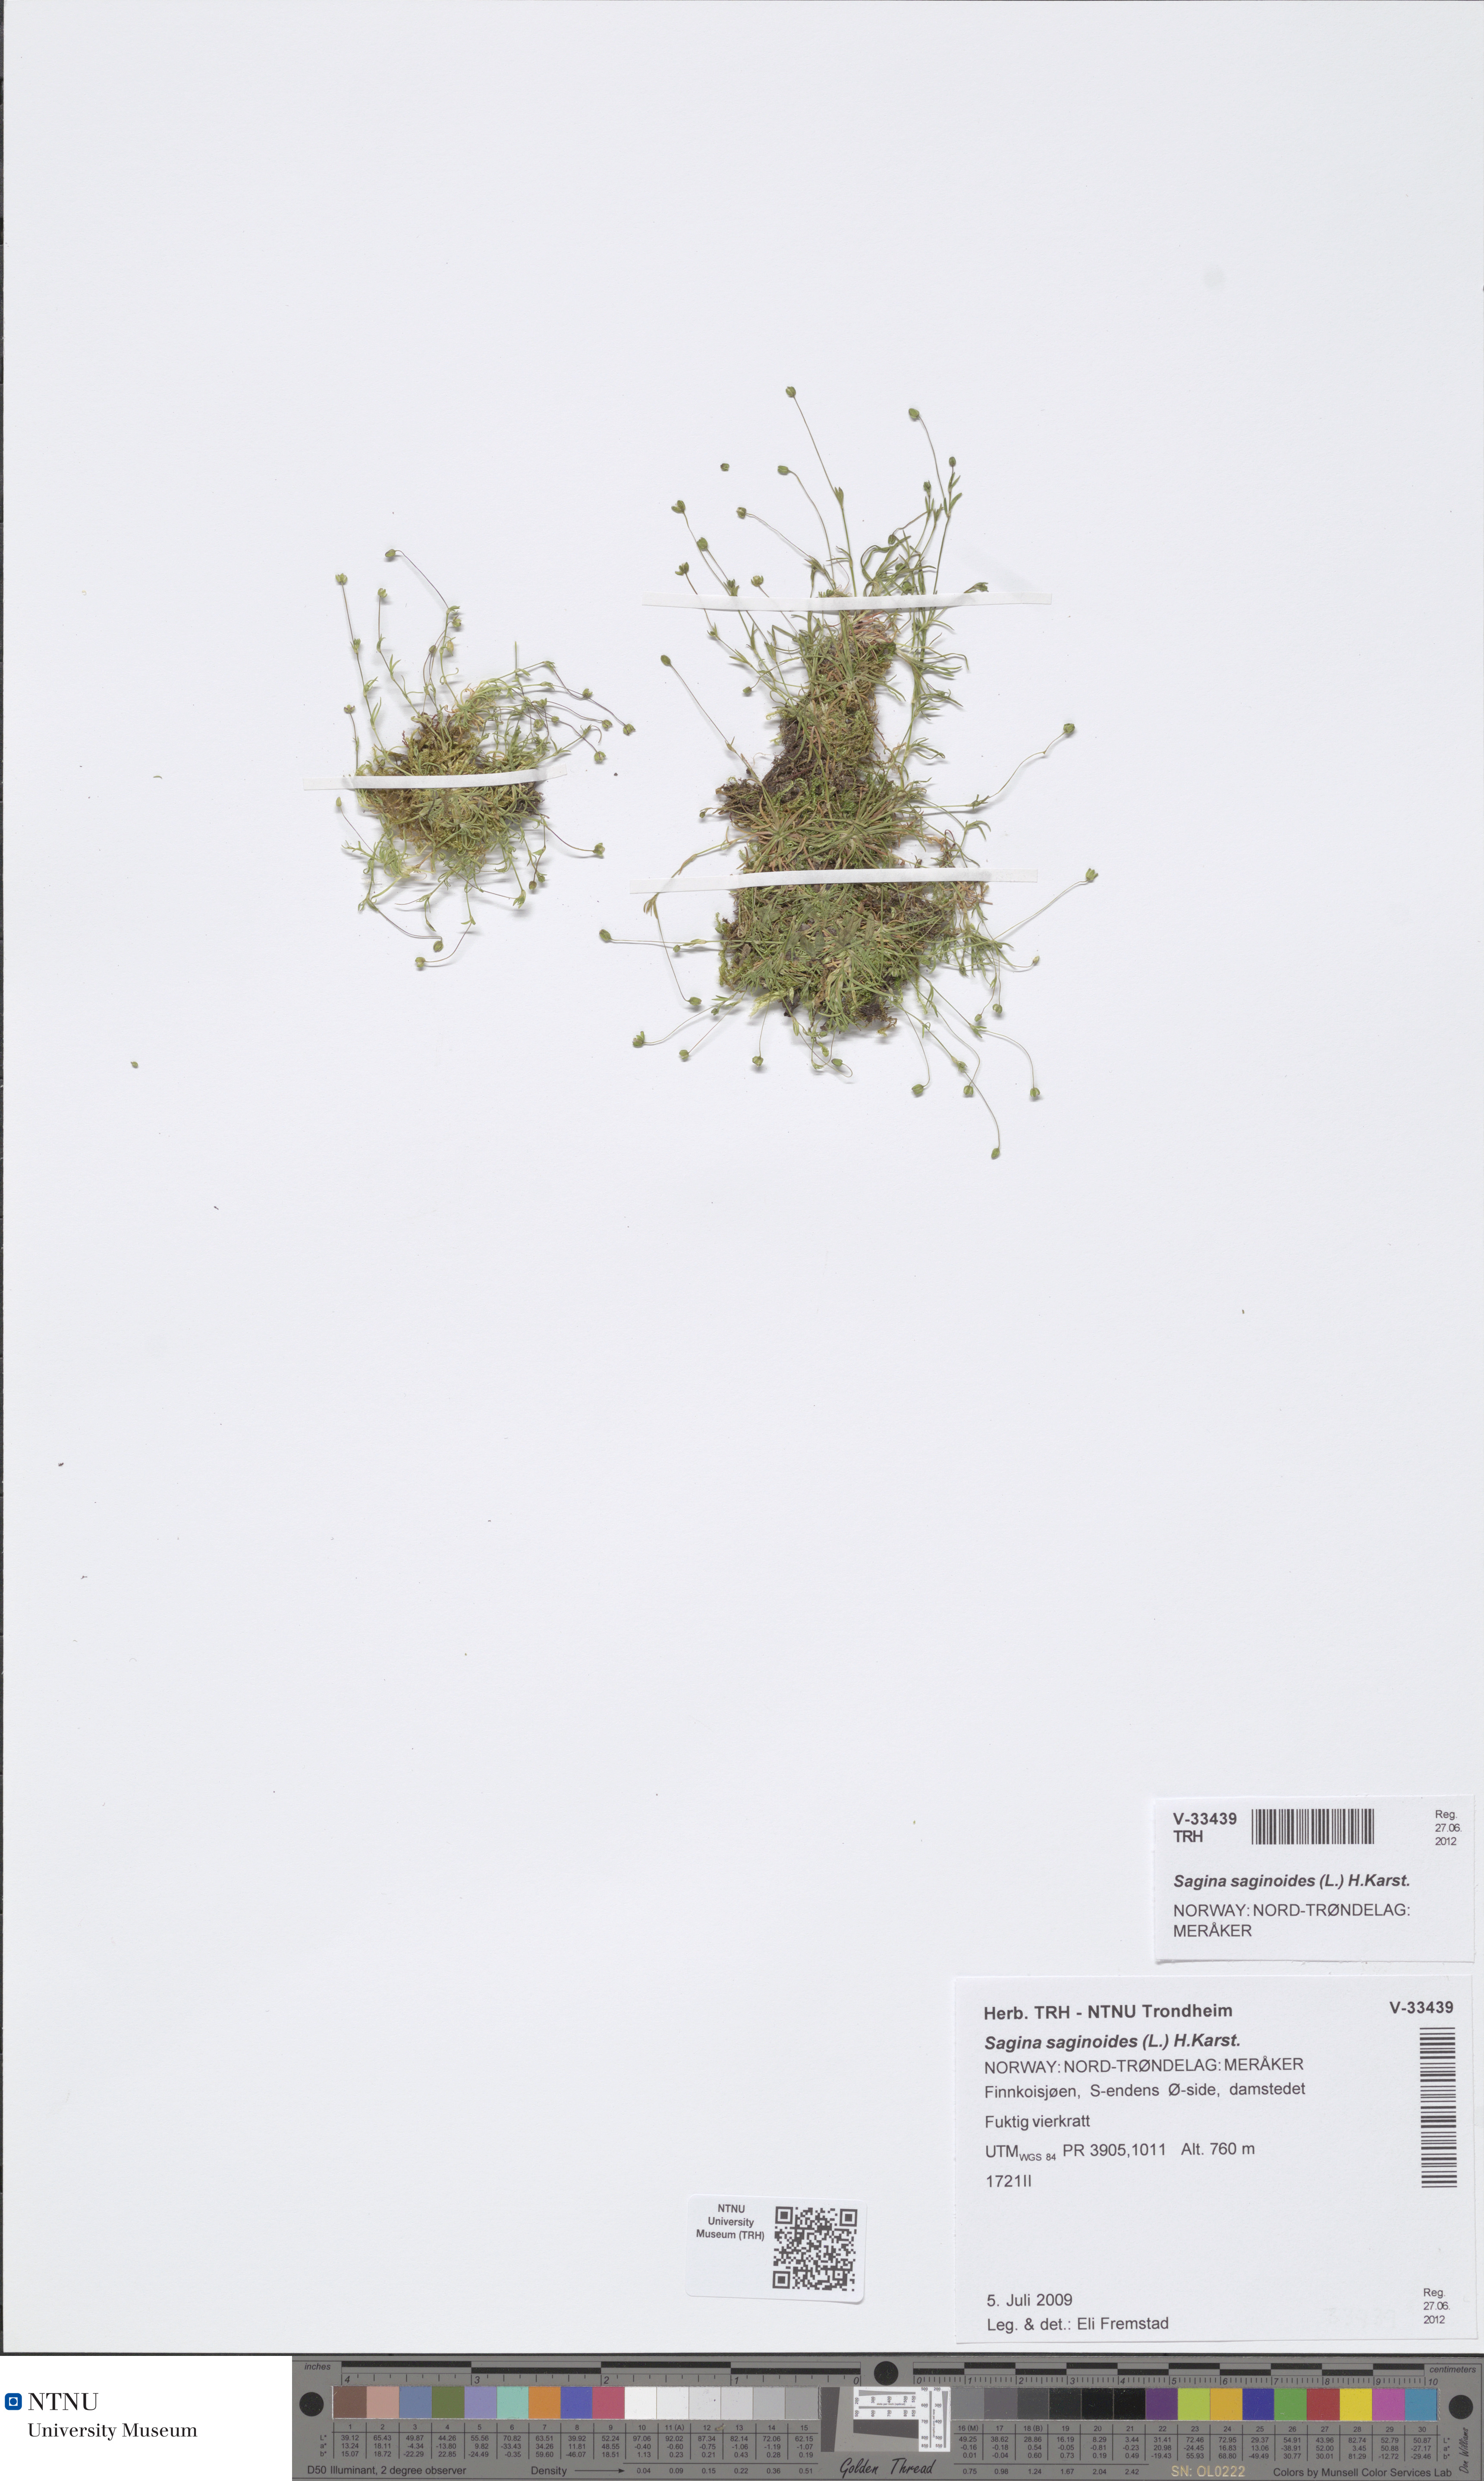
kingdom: Plantae
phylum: Tracheophyta
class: Magnoliopsida
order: Caryophyllales
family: Caryophyllaceae
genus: Sagina
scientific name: Sagina saginoides
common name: Alpine pearlwort
